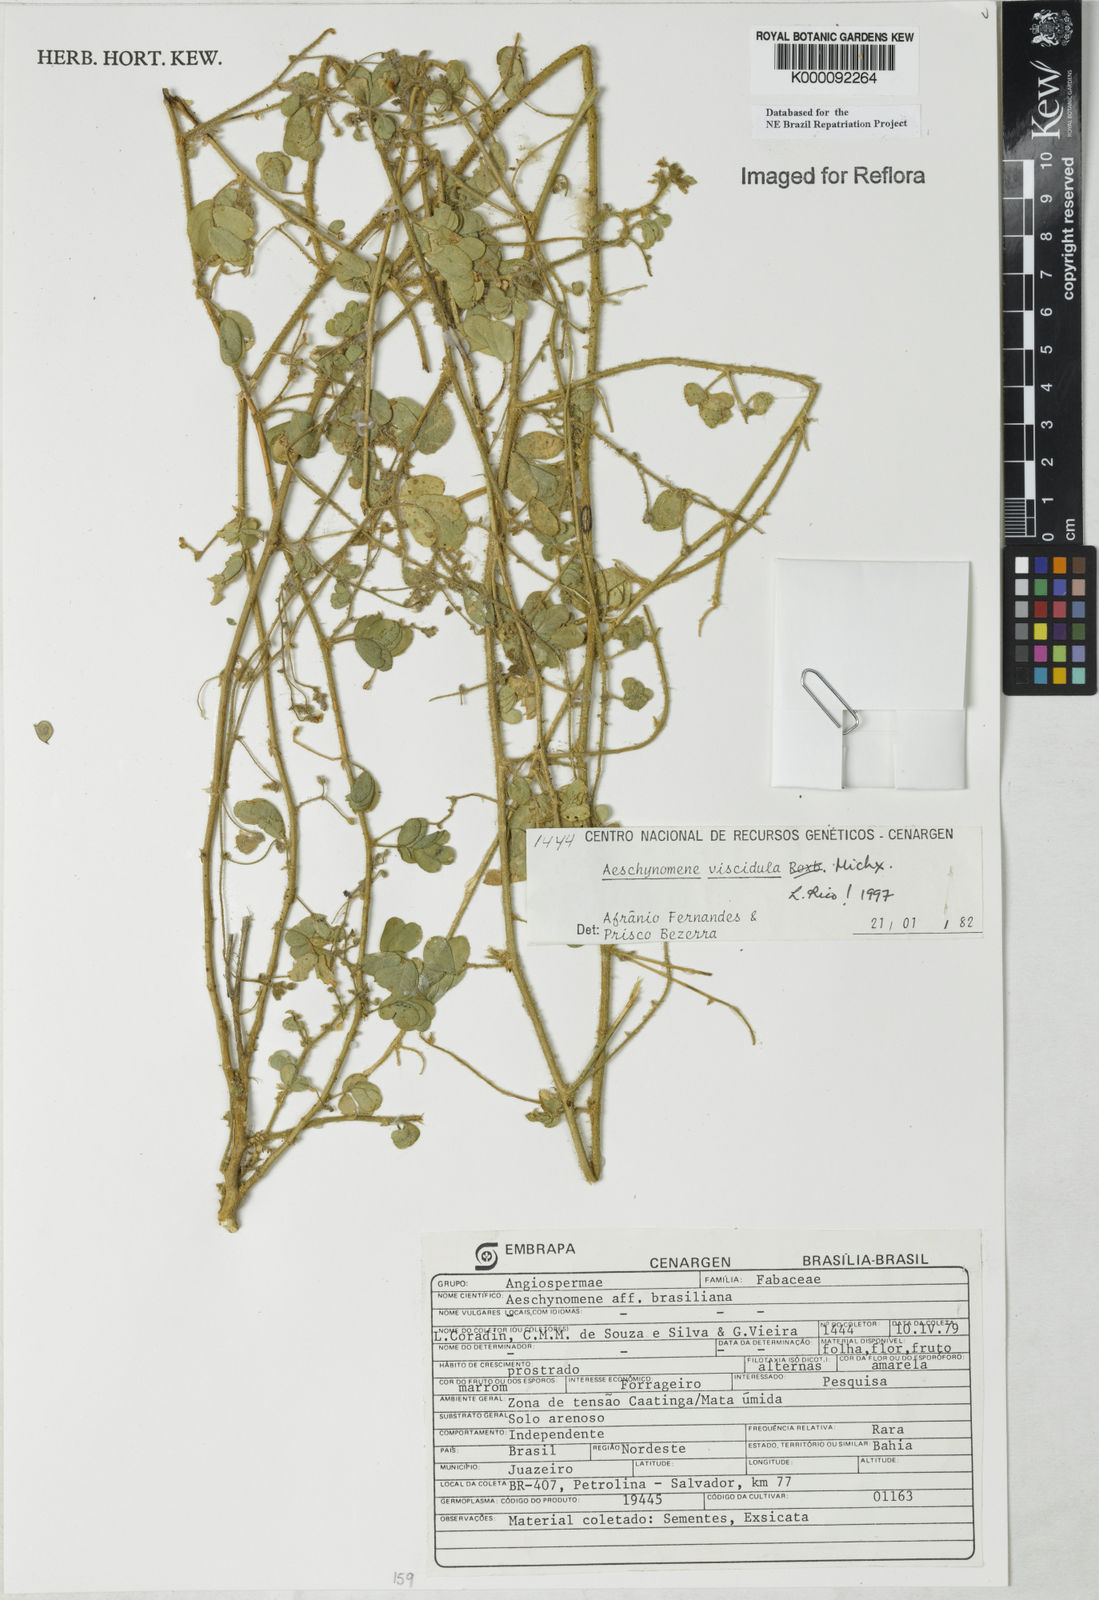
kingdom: Plantae
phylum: Tracheophyta
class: Magnoliopsida
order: Fabales
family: Fabaceae
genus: Ctenodon
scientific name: Ctenodon viscidulus
